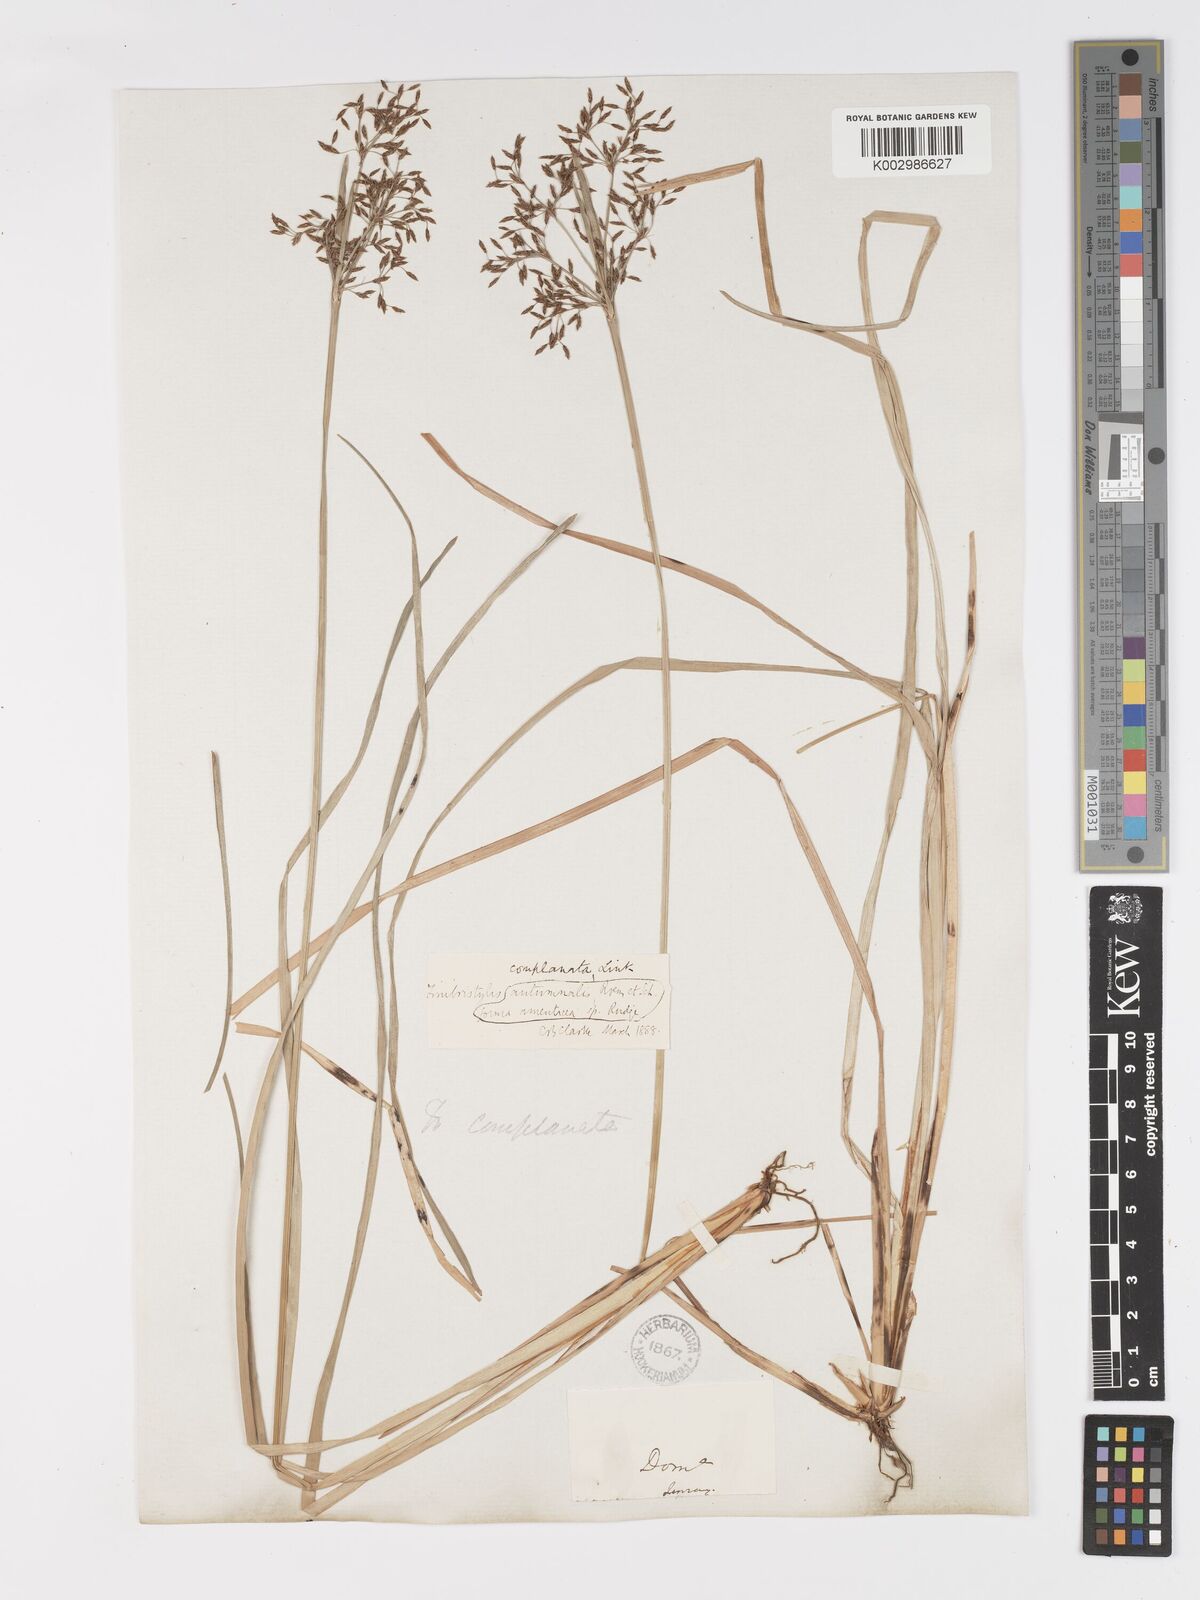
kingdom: Plantae
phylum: Tracheophyta
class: Liliopsida
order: Poales
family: Cyperaceae
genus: Fimbristylis
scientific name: Fimbristylis complanata
